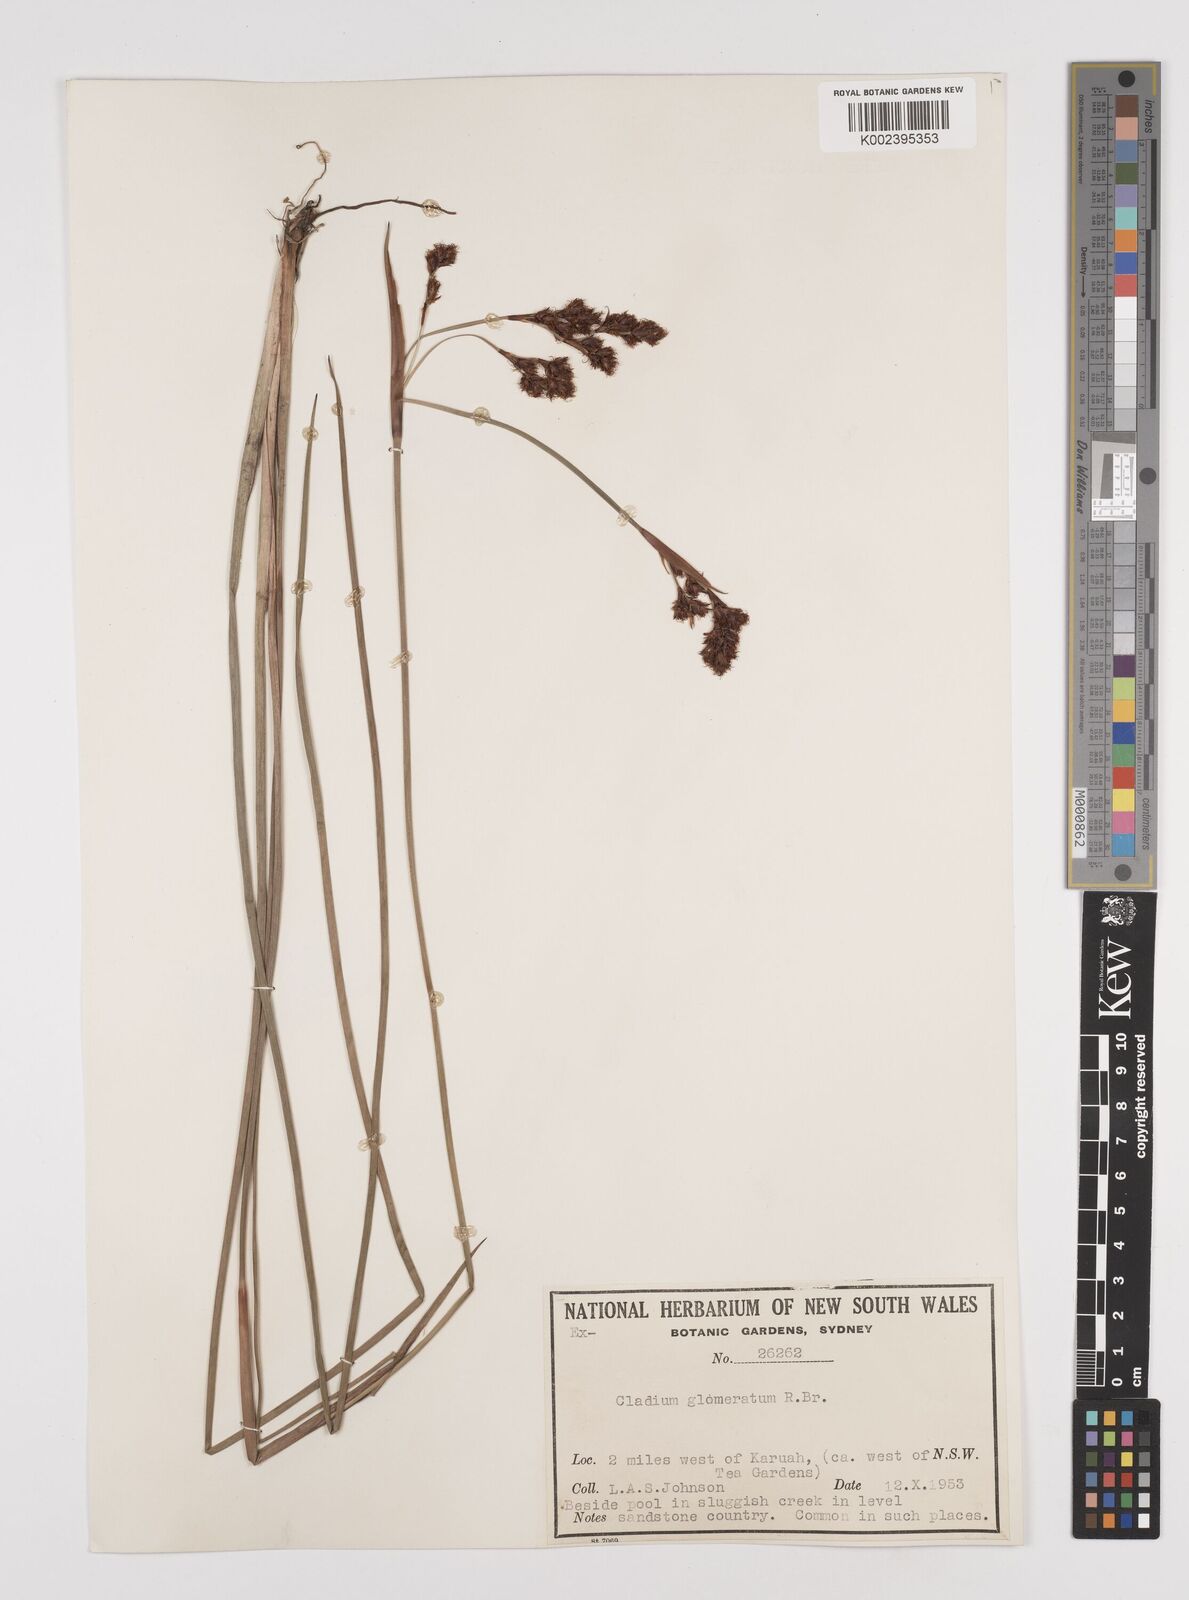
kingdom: Plantae
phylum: Tracheophyta
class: Liliopsida
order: Poales
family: Cyperaceae
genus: Machaerina
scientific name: Machaerina rubiginosa
